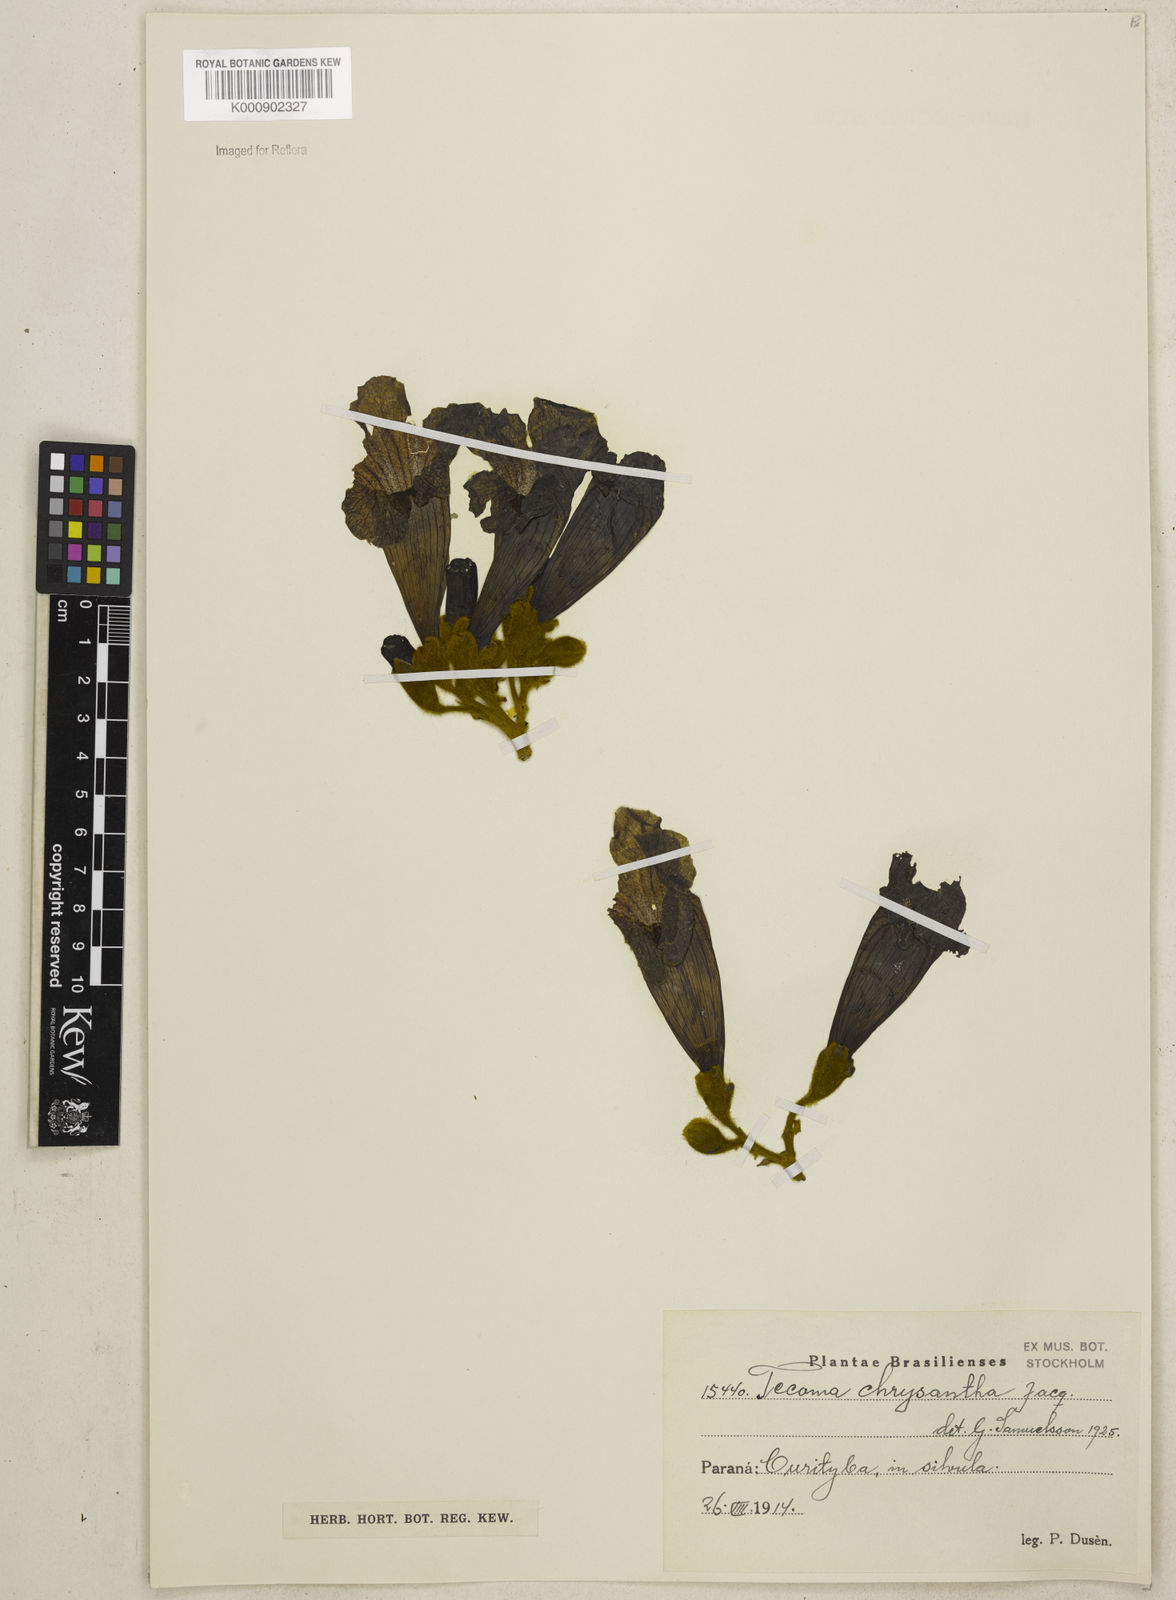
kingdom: Plantae
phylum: Tracheophyta
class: Magnoliopsida
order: Lamiales
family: Bignoniaceae
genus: Handroanthus
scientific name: Handroanthus albus
